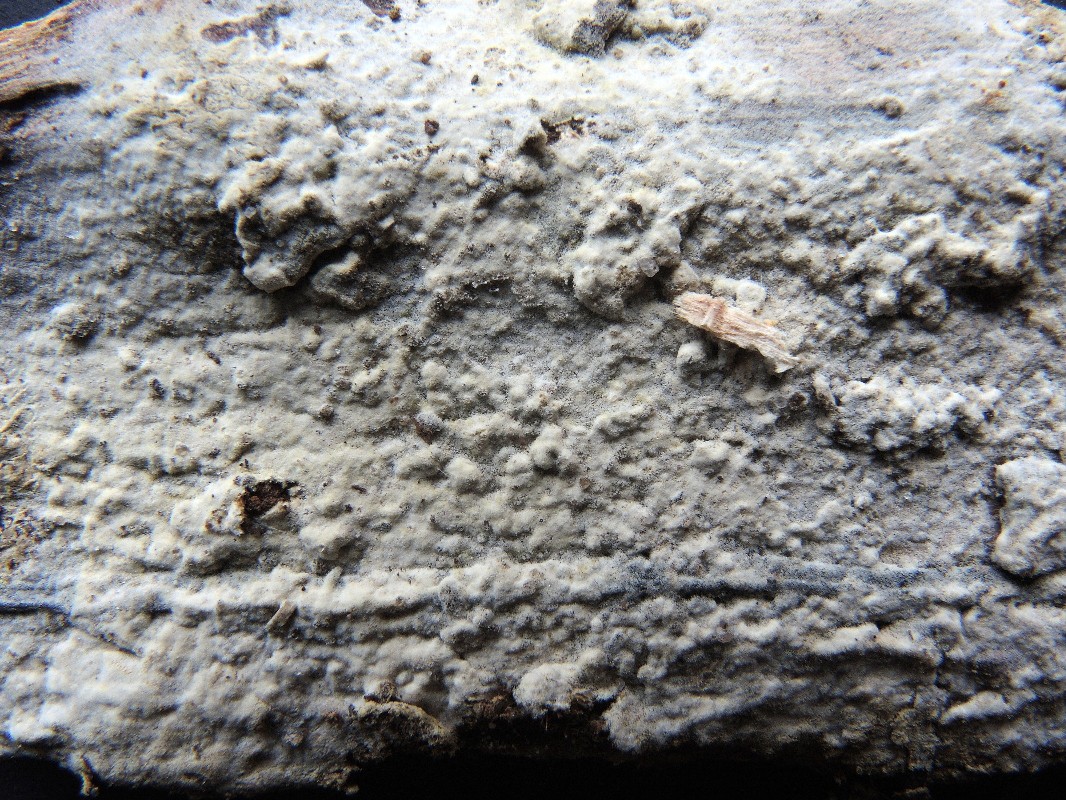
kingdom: Fungi
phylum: Basidiomycota
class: Agaricomycetes
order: Cantharellales
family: Botryobasidiaceae
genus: Botryobasidium
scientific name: Botryobasidium laeve
